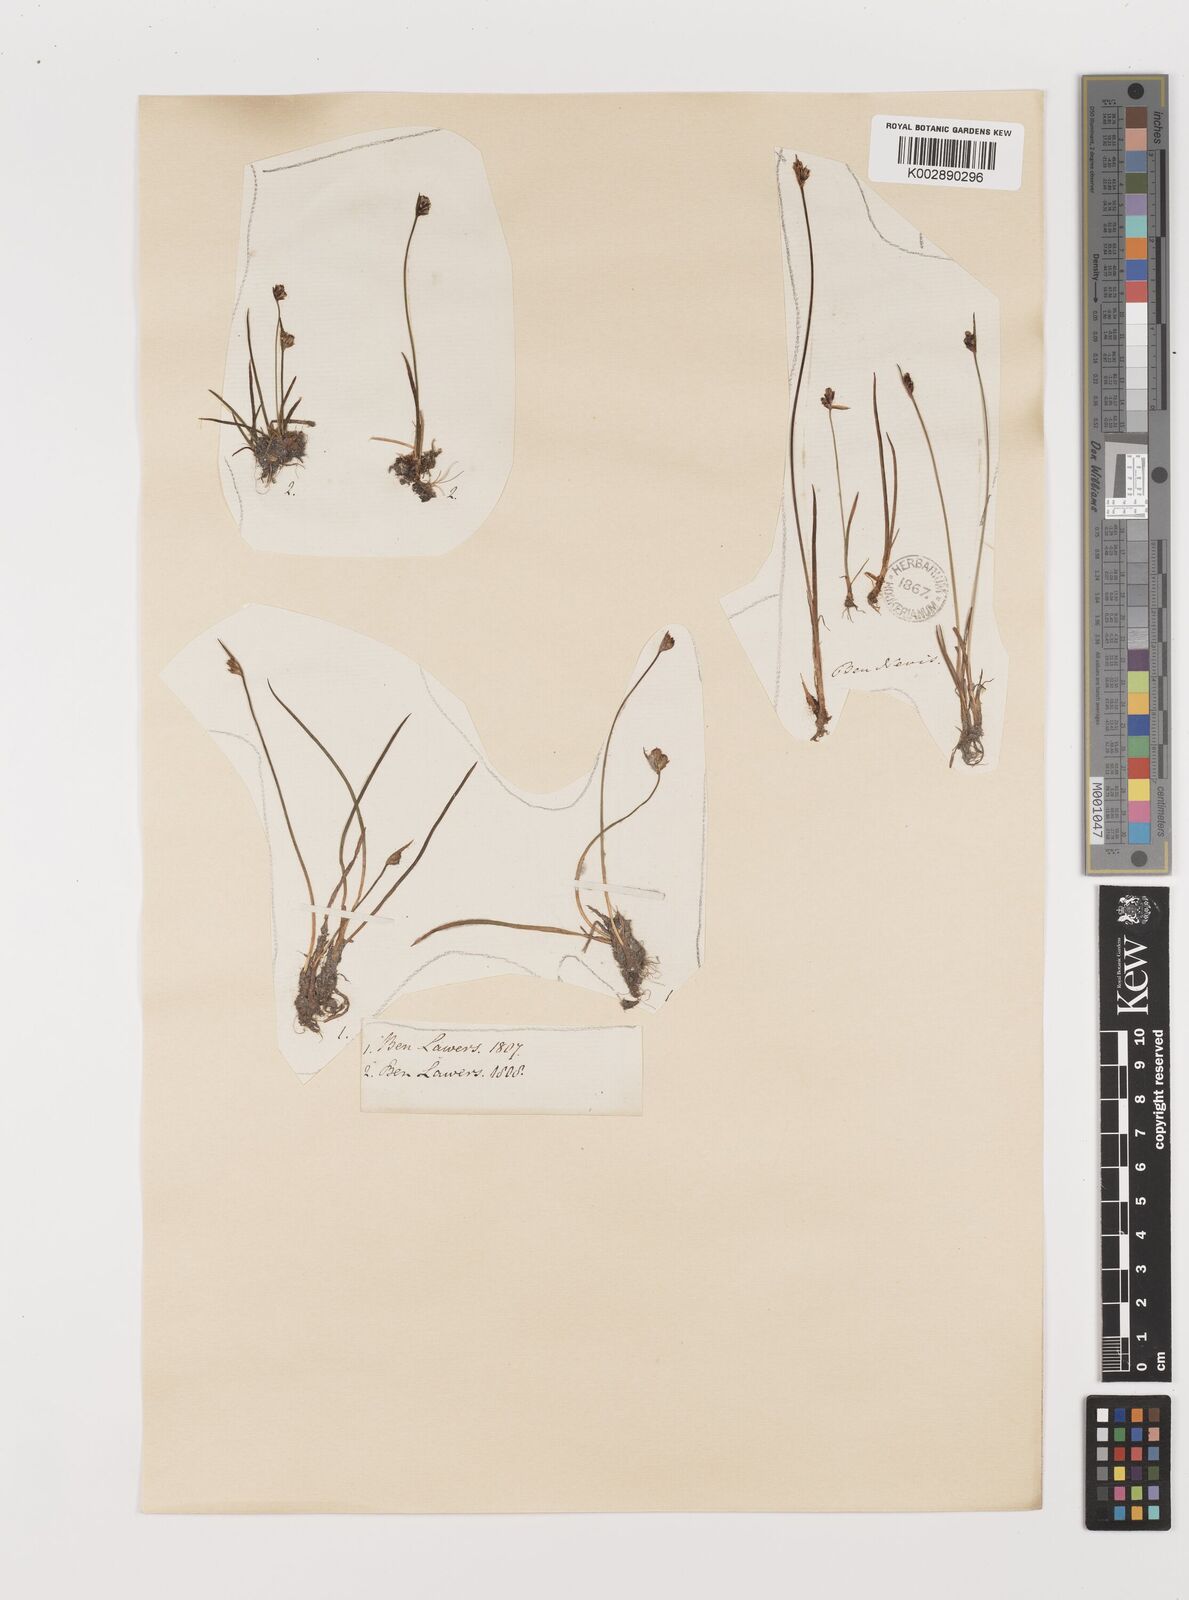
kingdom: Plantae
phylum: Tracheophyta
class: Liliopsida
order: Poales
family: Juncaceae
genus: Juncus
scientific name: Juncus biglumis
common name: Two-flowered rush
